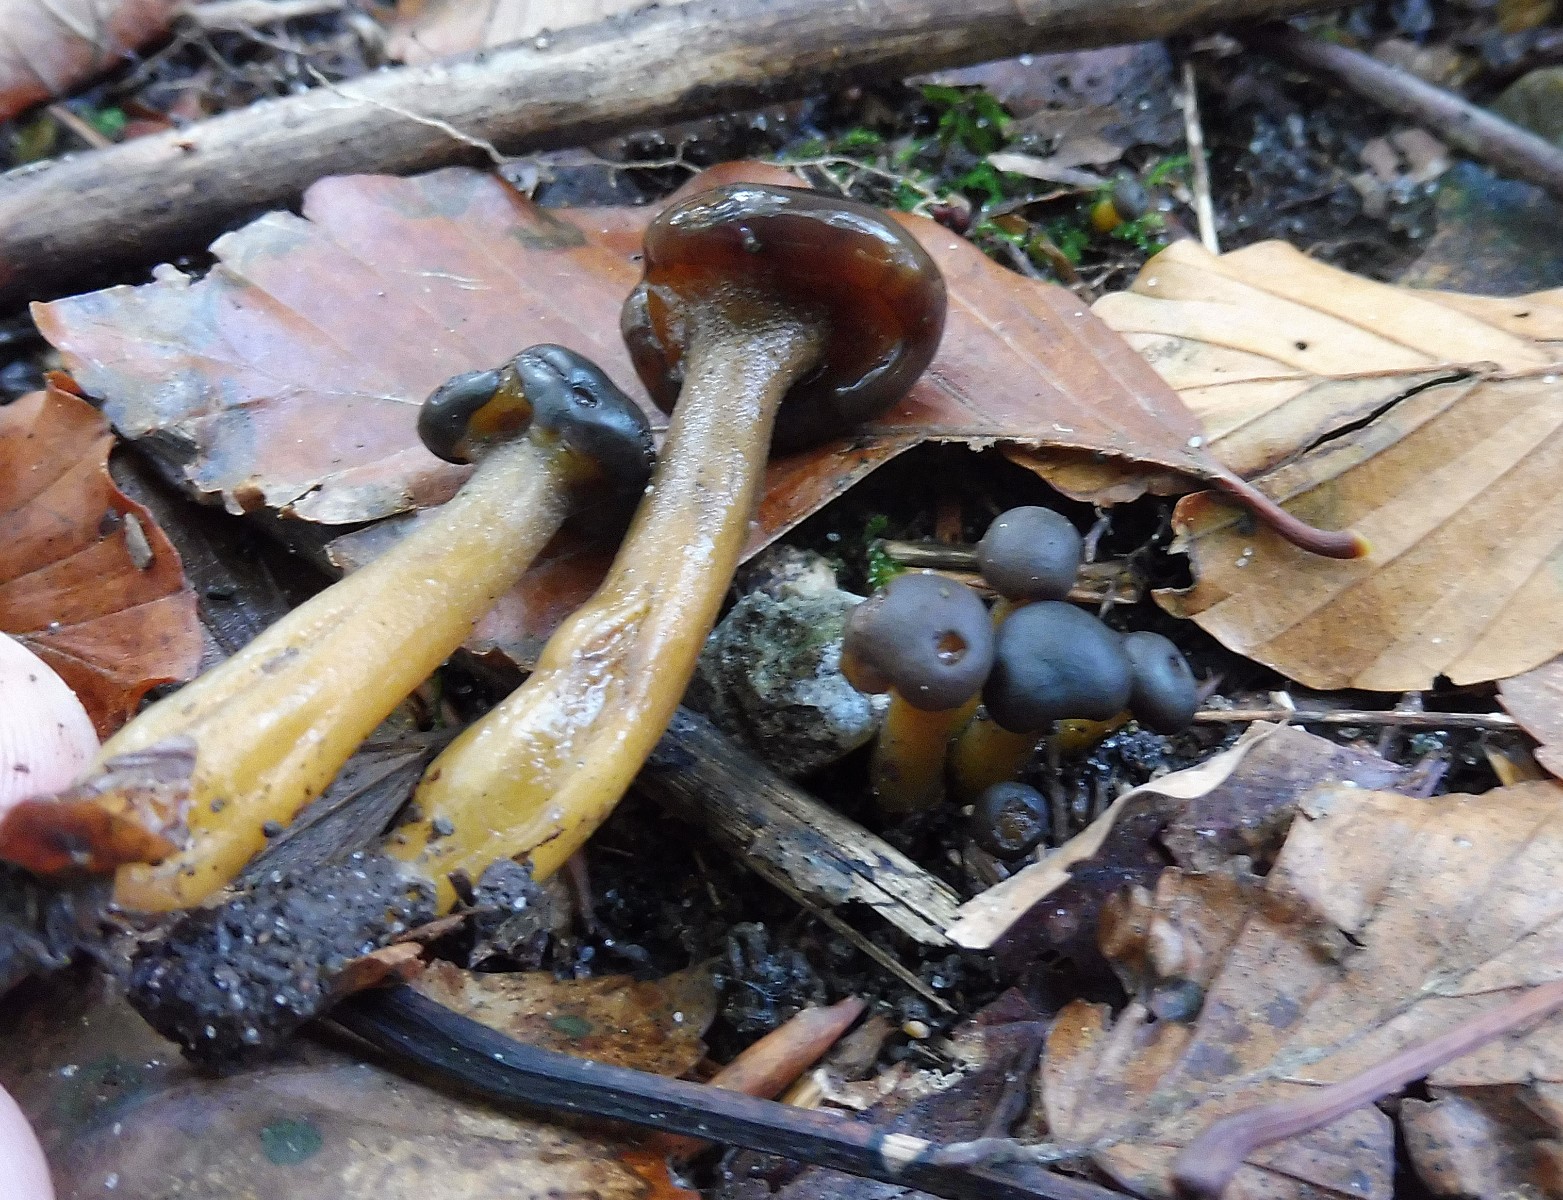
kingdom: Fungi
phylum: Ascomycota
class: Leotiomycetes
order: Leotiales
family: Leotiaceae
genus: Leotia
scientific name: Leotia lubrica
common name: ravsvamp
